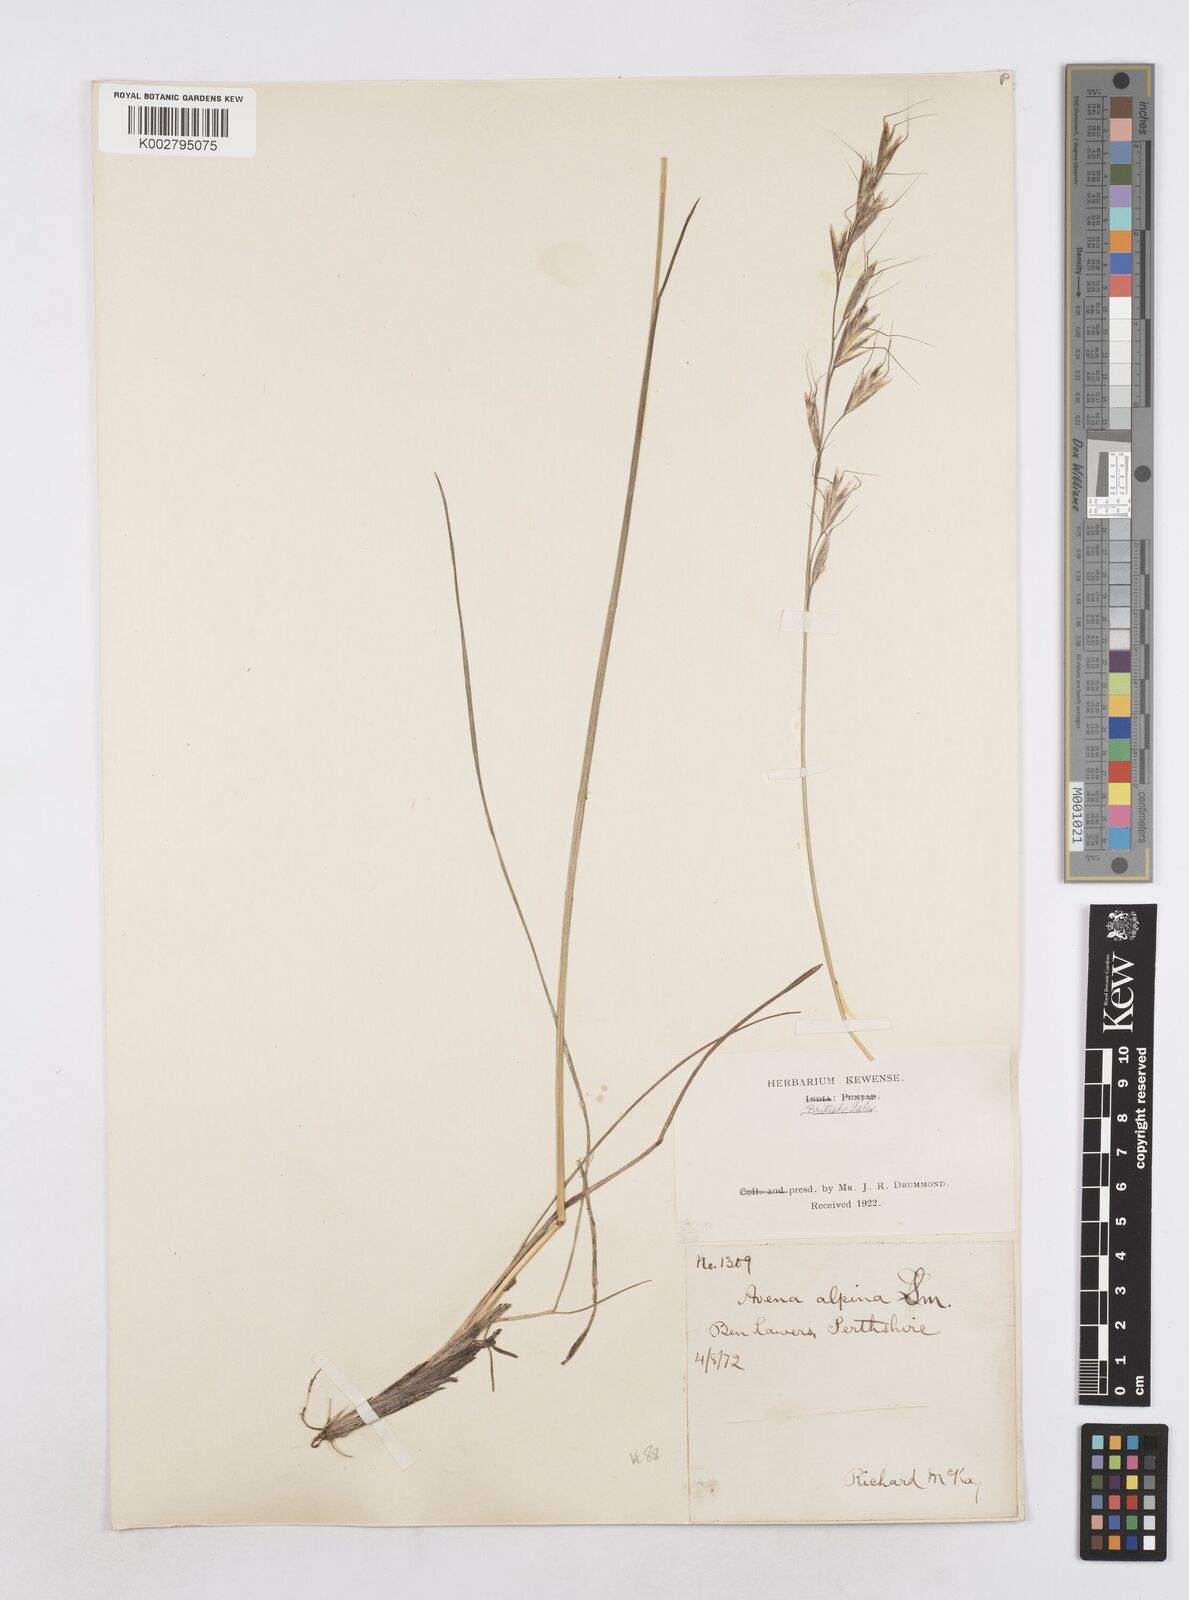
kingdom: Plantae
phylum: Tracheophyta
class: Liliopsida
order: Poales
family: Poaceae
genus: Helictotrichon
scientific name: Helictotrichon
